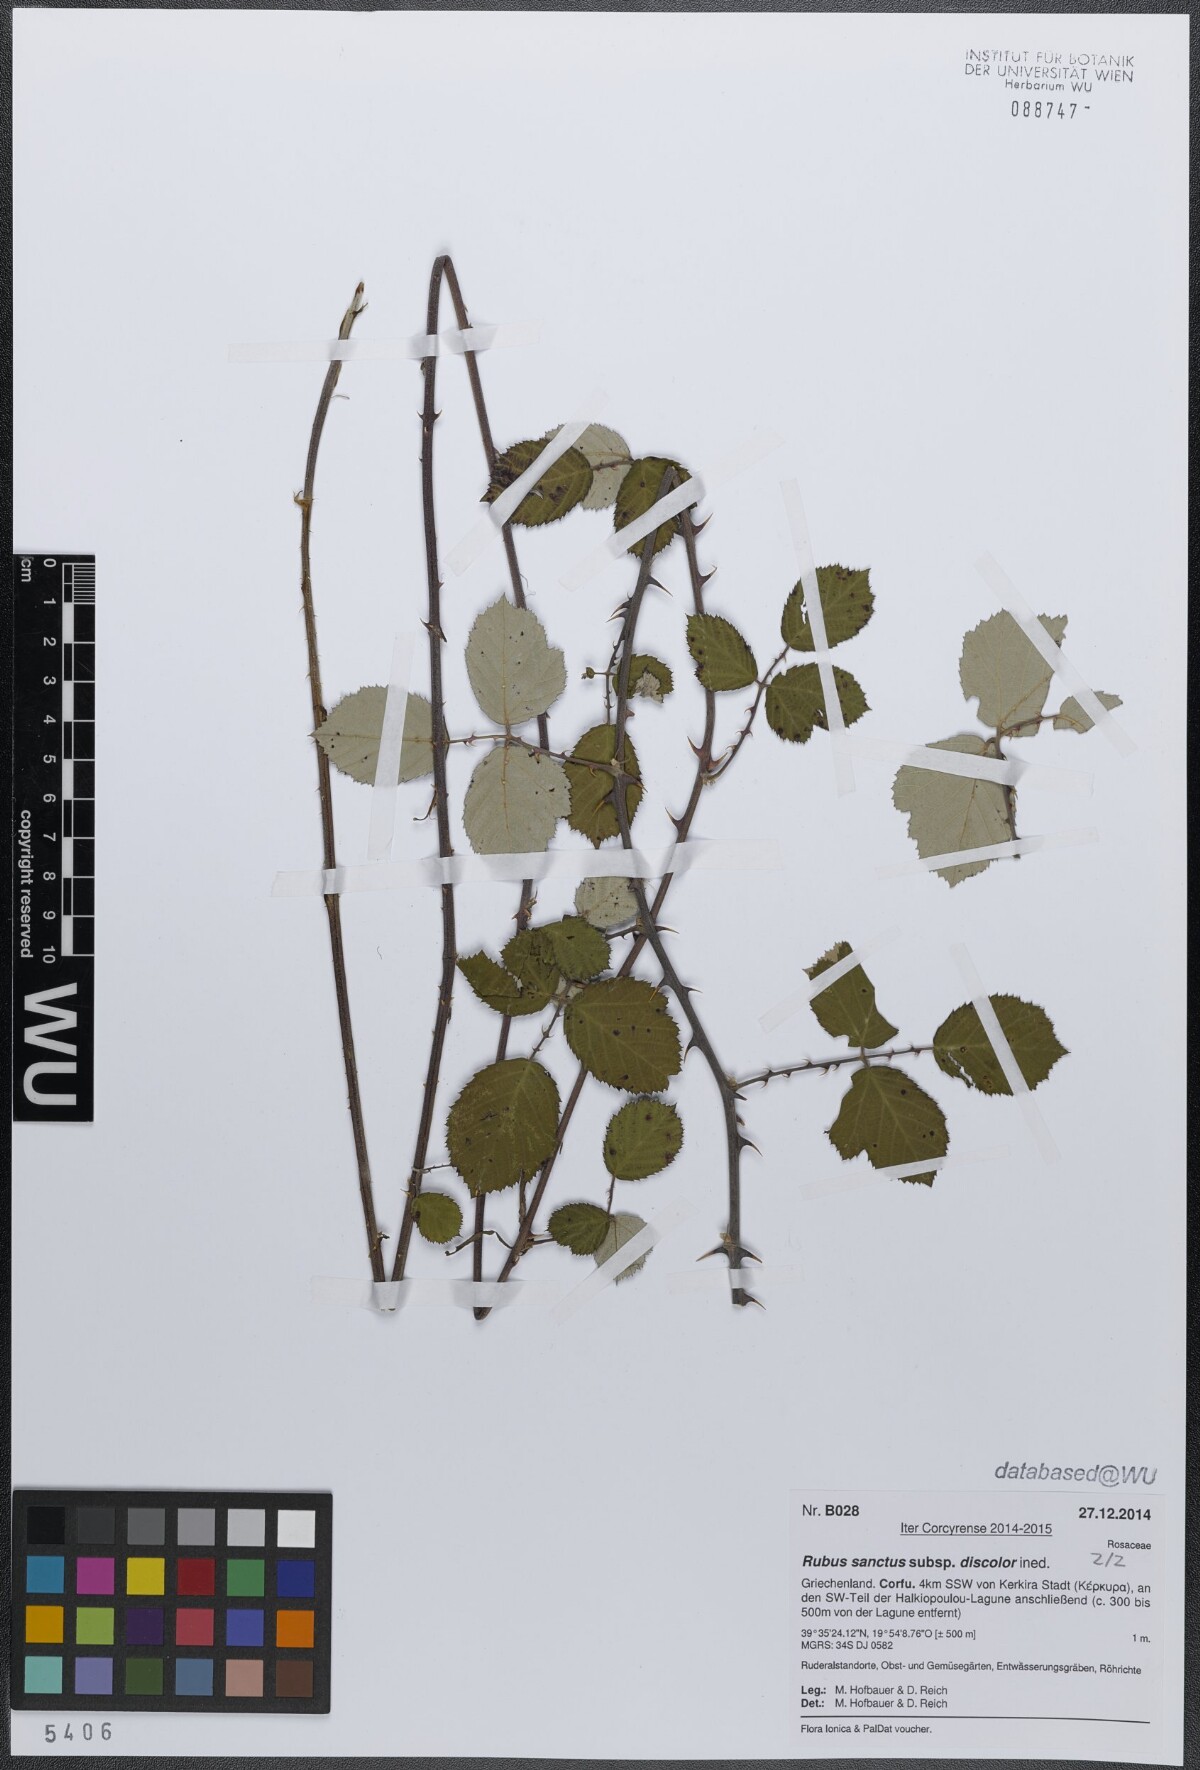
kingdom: Plantae
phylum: Tracheophyta
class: Magnoliopsida
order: Rosales
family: Rosaceae
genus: Rubus
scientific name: Rubus sanctus
